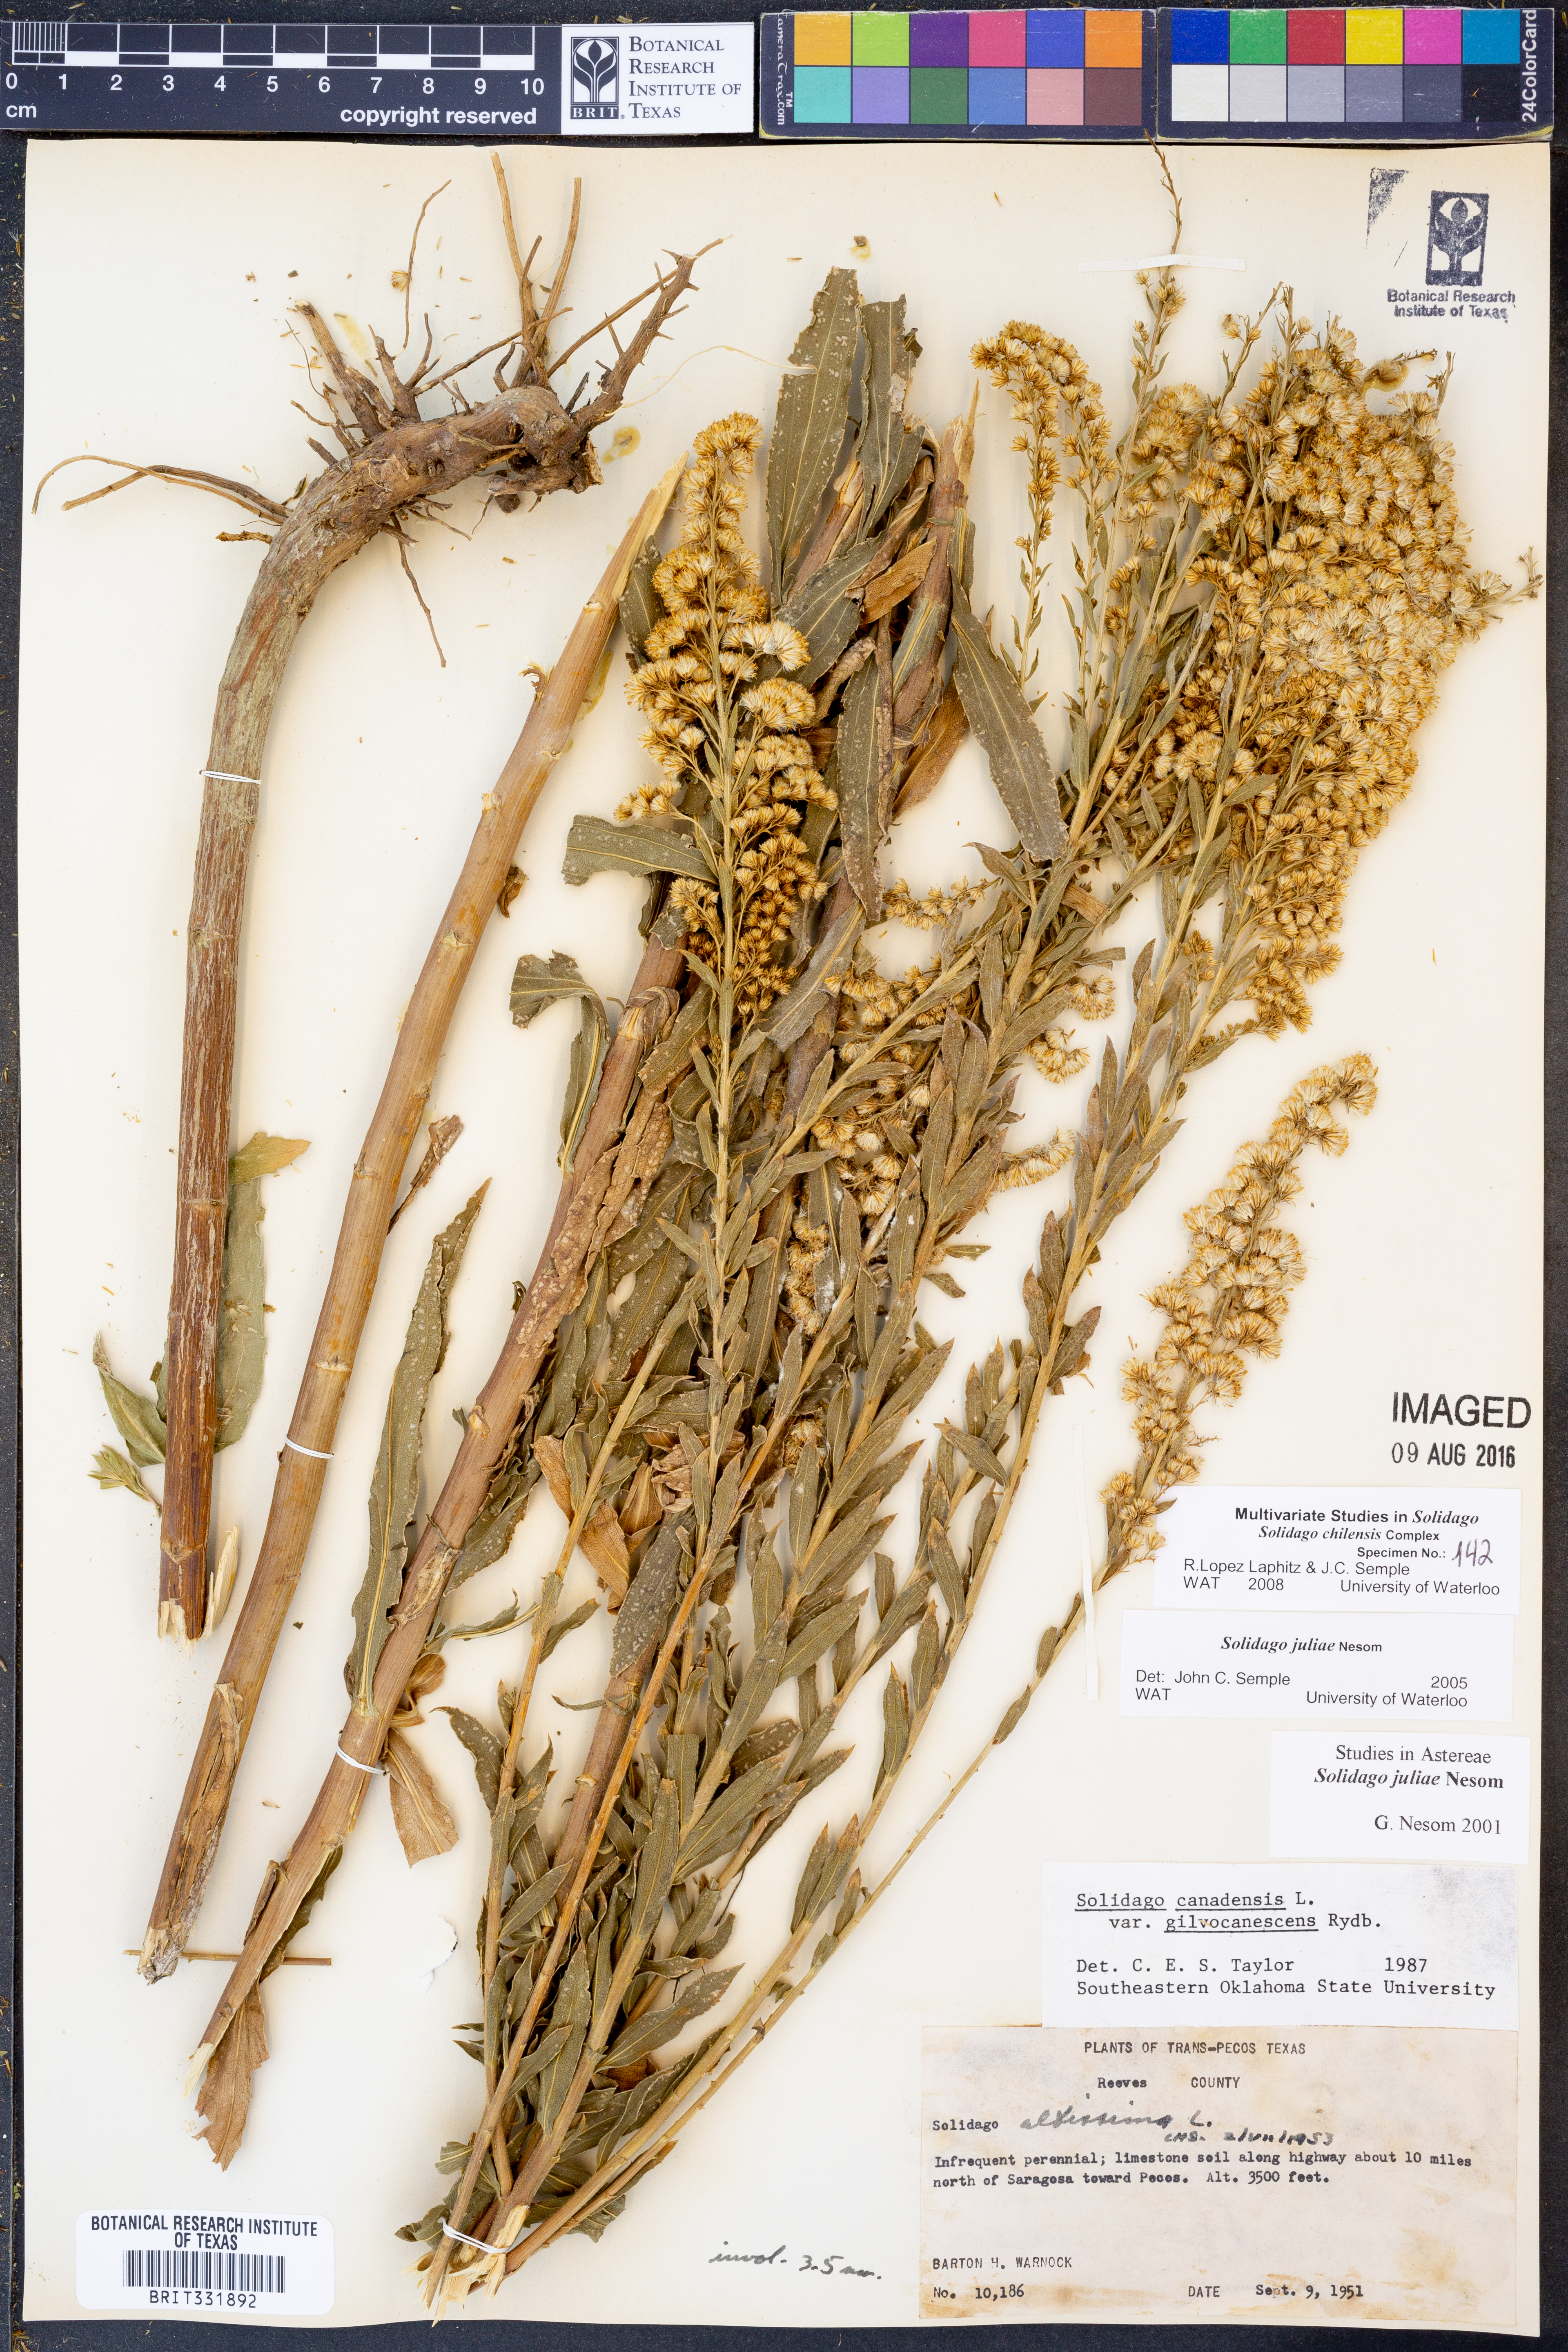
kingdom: Plantae
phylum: Tracheophyta
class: Magnoliopsida
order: Asterales
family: Asteraceae
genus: Solidago
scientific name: Solidago chilensis
